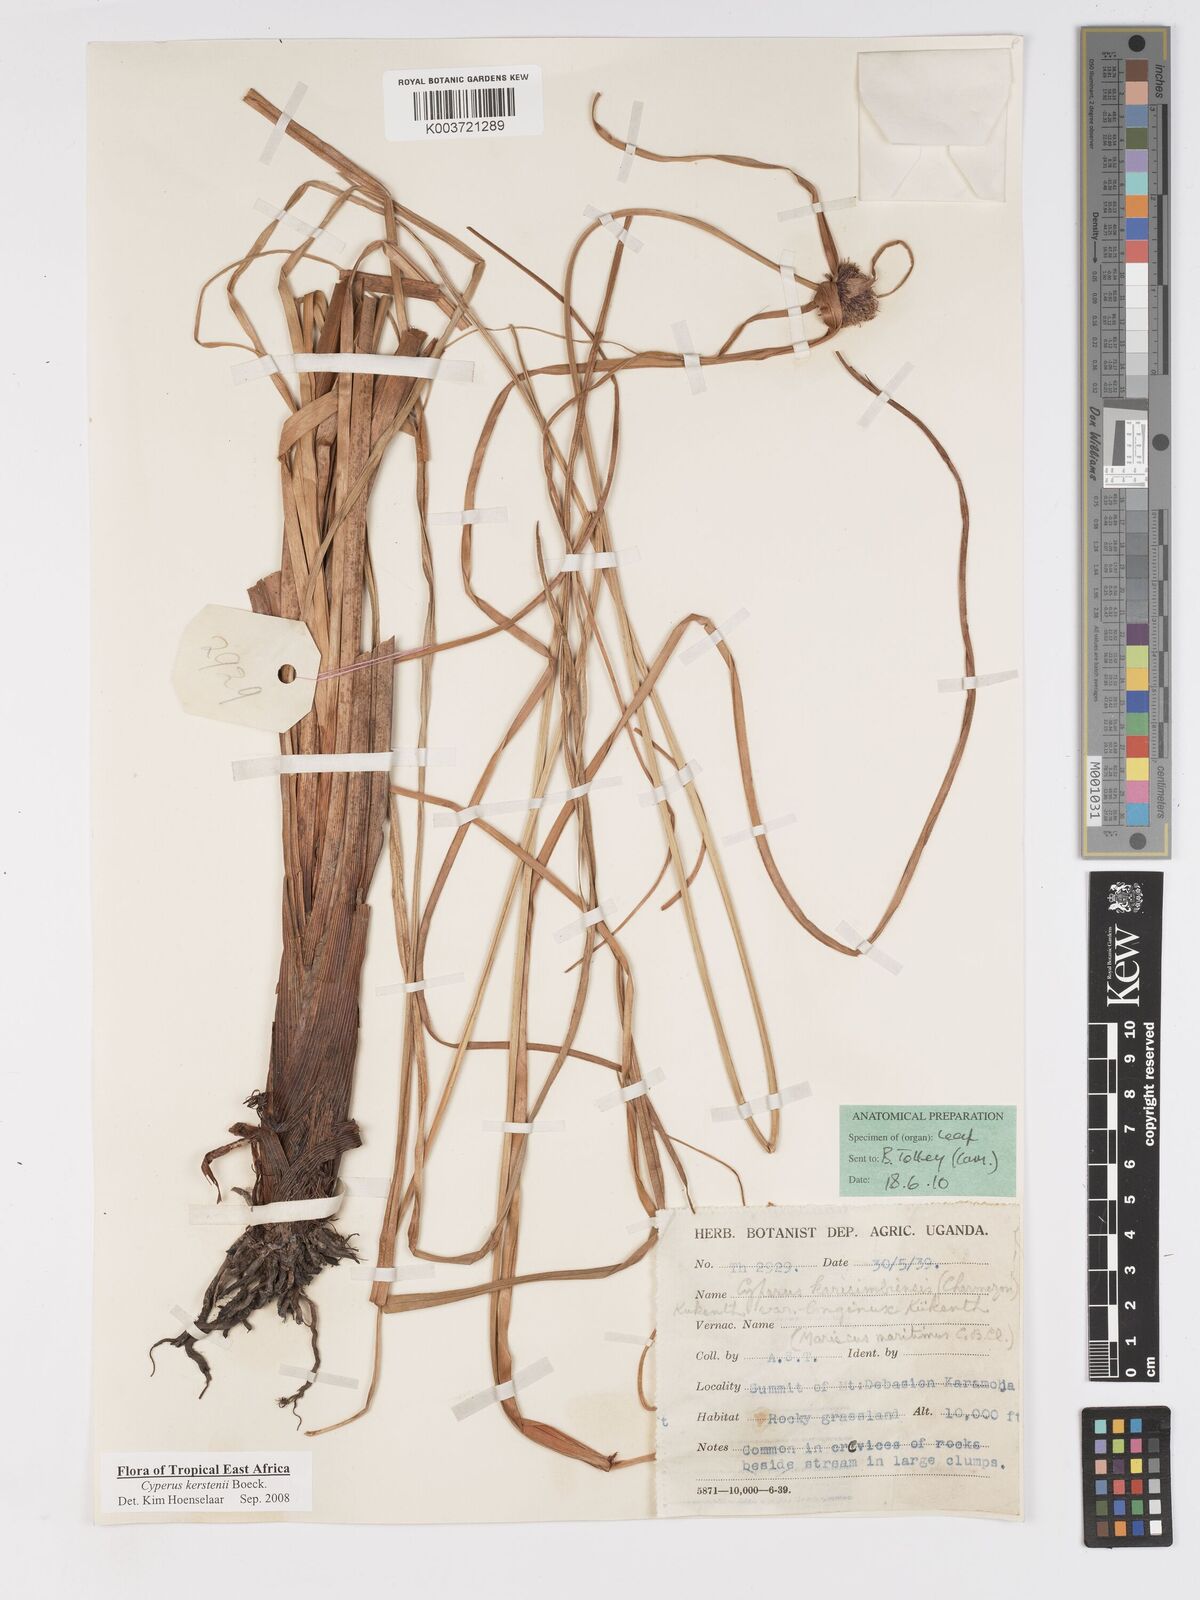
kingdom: Plantae
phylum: Tracheophyta
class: Liliopsida
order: Poales
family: Cyperaceae
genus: Cyperus
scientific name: Cyperus kerstenii
